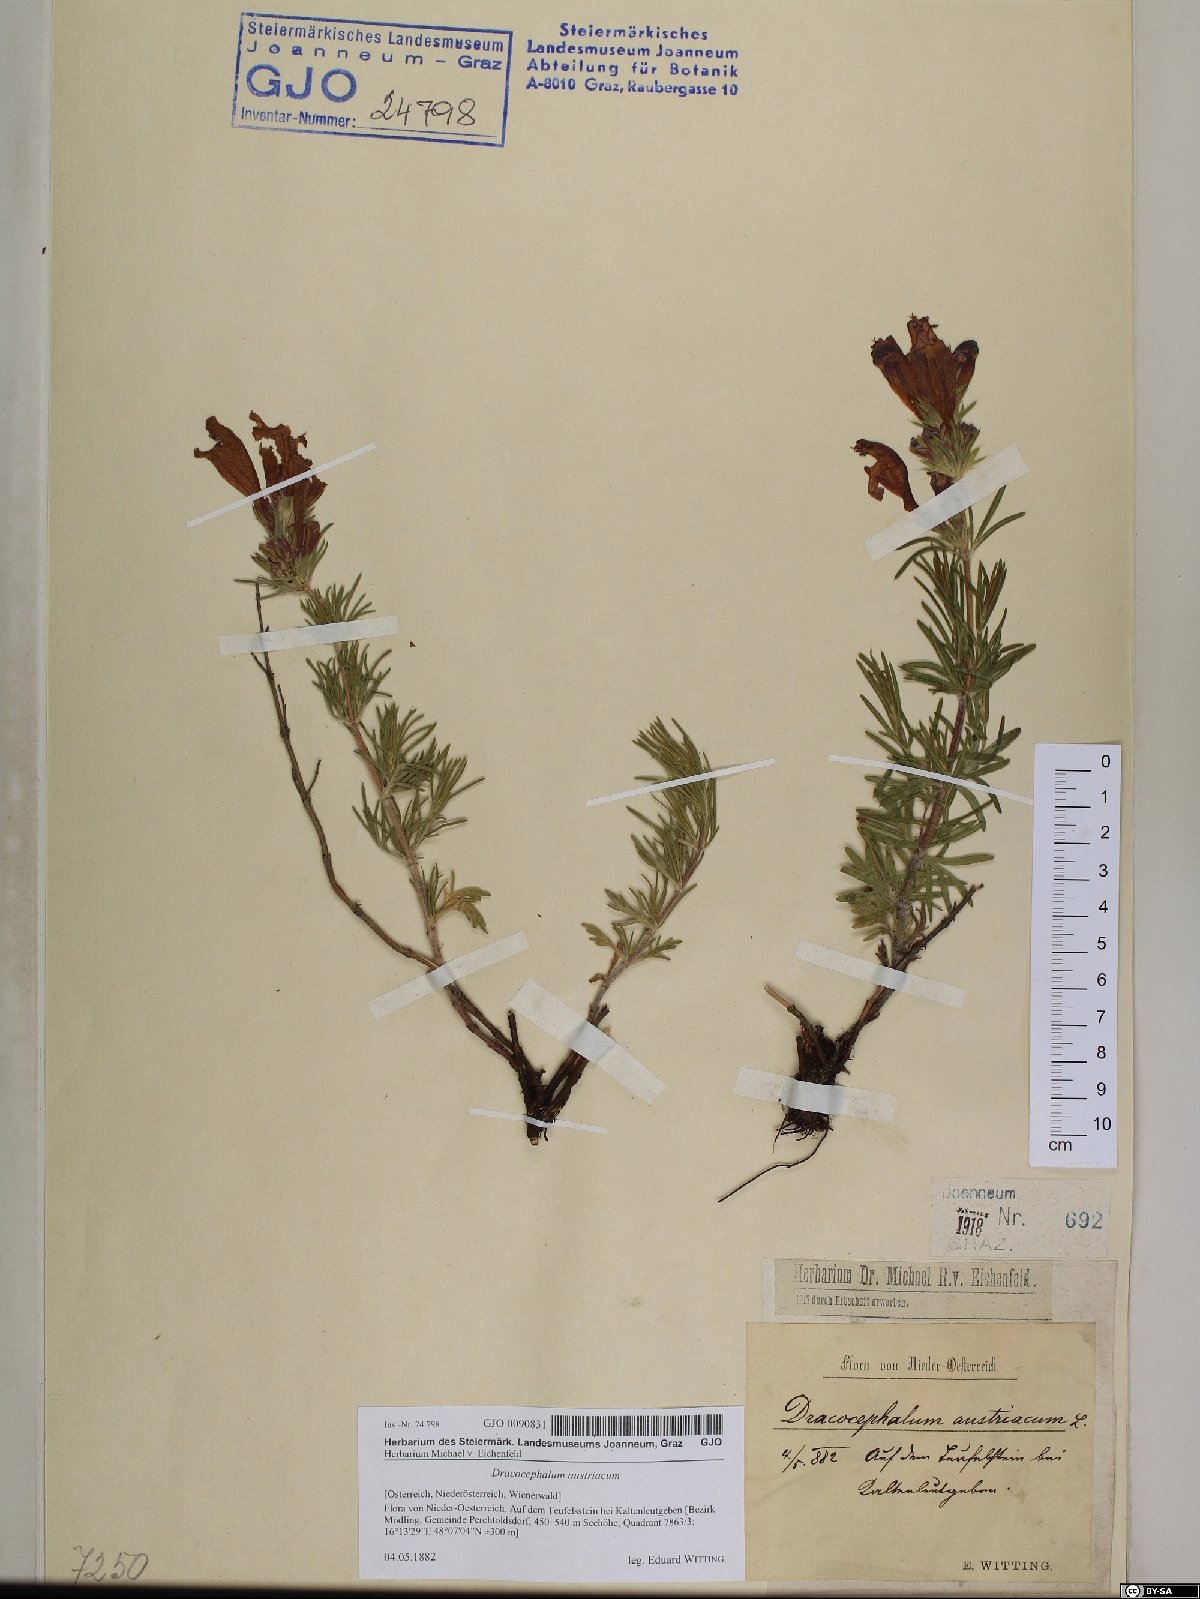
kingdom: Plantae
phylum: Tracheophyta
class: Magnoliopsida
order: Lamiales
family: Lamiaceae
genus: Dracocephalum
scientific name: Dracocephalum austriacum
